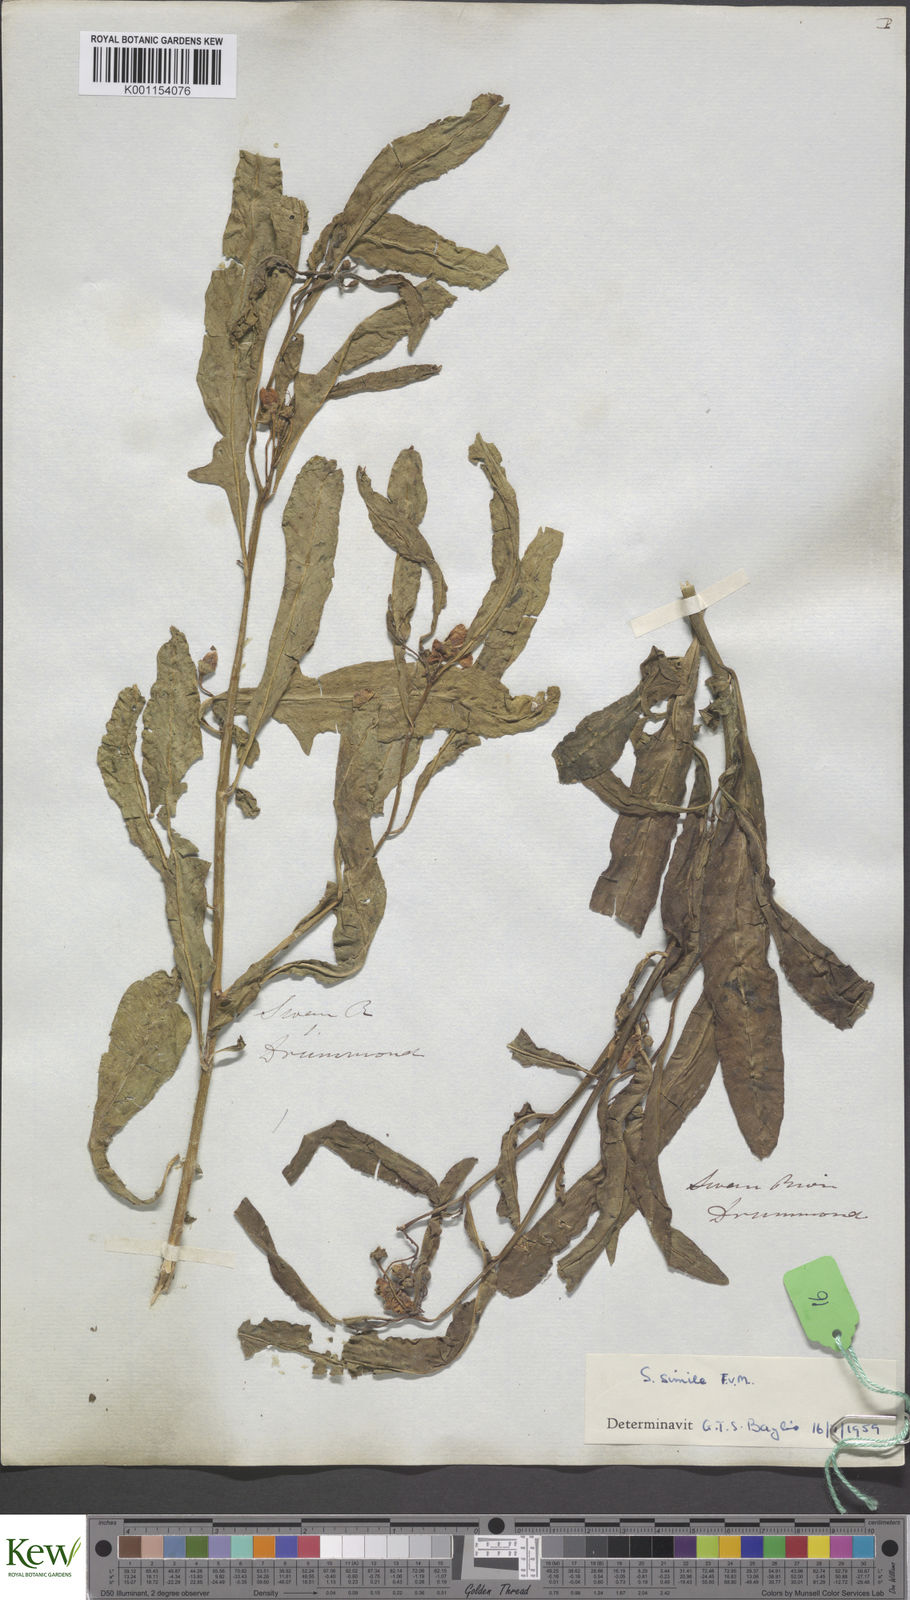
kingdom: Plantae
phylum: Tracheophyta
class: Magnoliopsida
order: Solanales
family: Solanaceae
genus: Solanum
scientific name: Solanum simile
